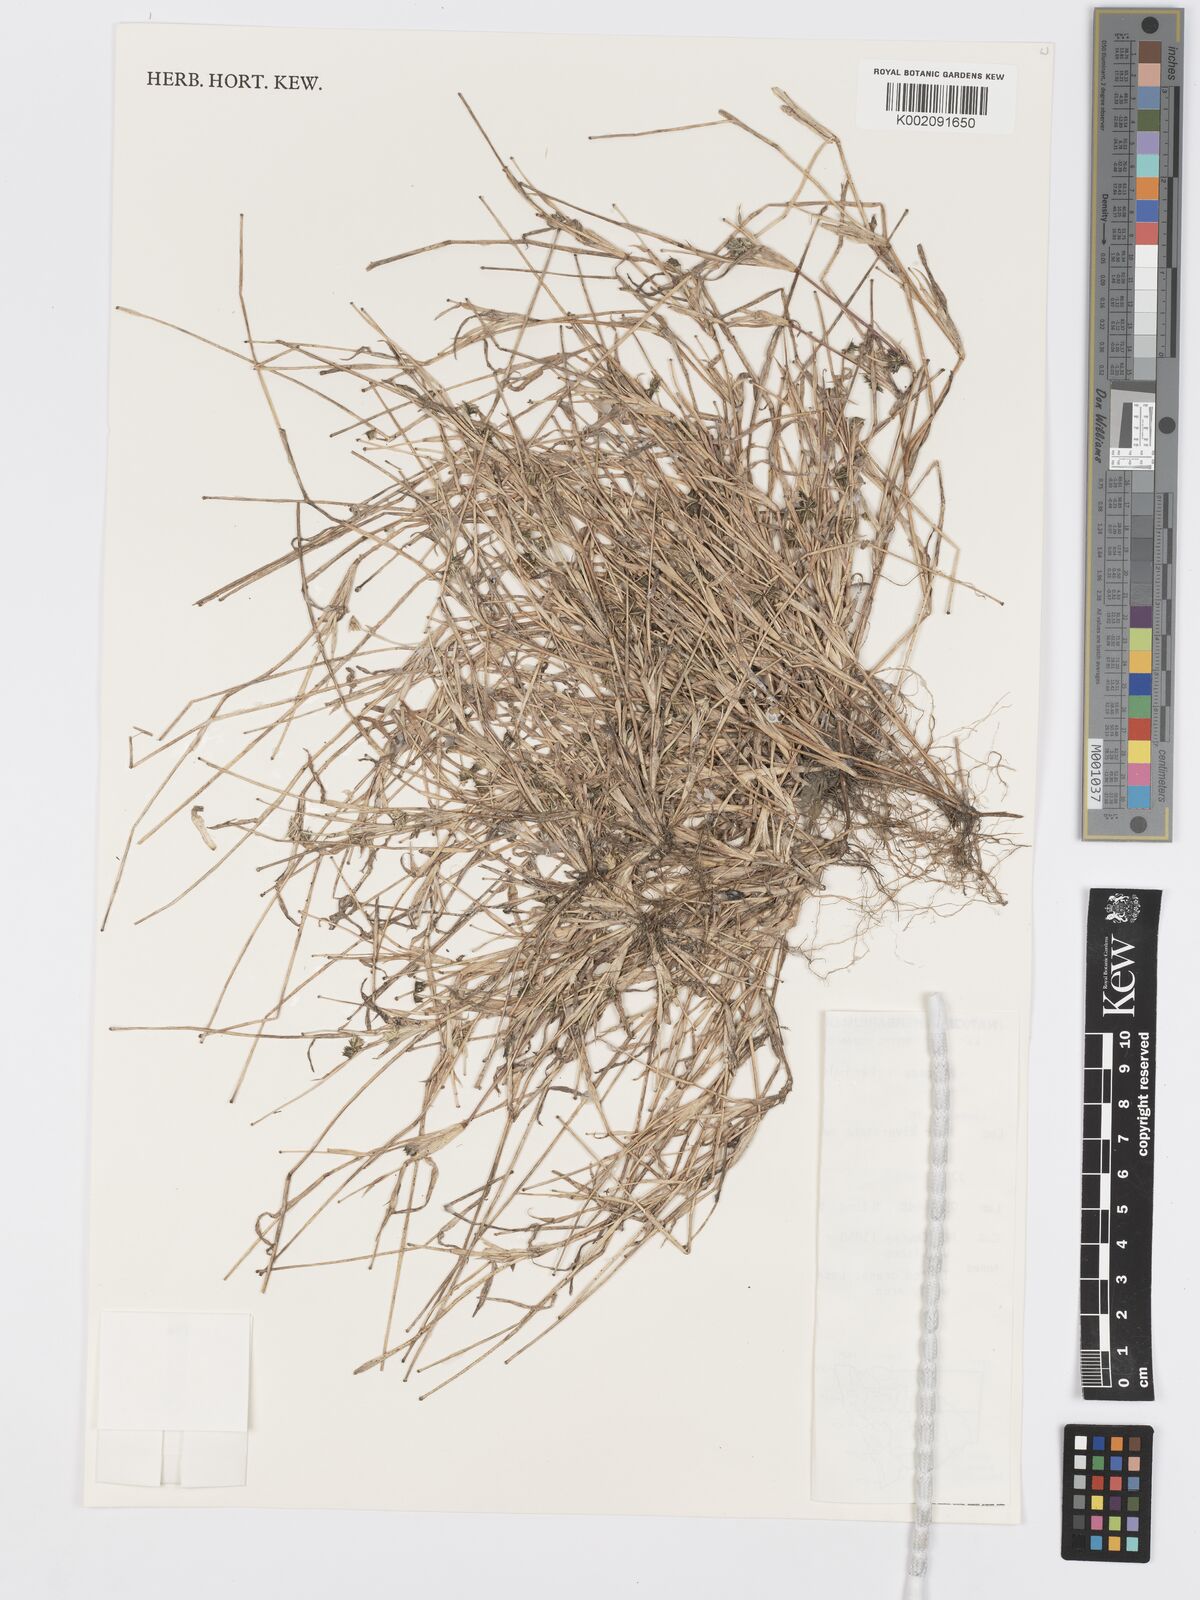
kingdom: Plantae
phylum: Tracheophyta
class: Liliopsida
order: Poales
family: Poaceae
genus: Dactyloctenium
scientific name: Dactyloctenium radulans
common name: Button-grass
